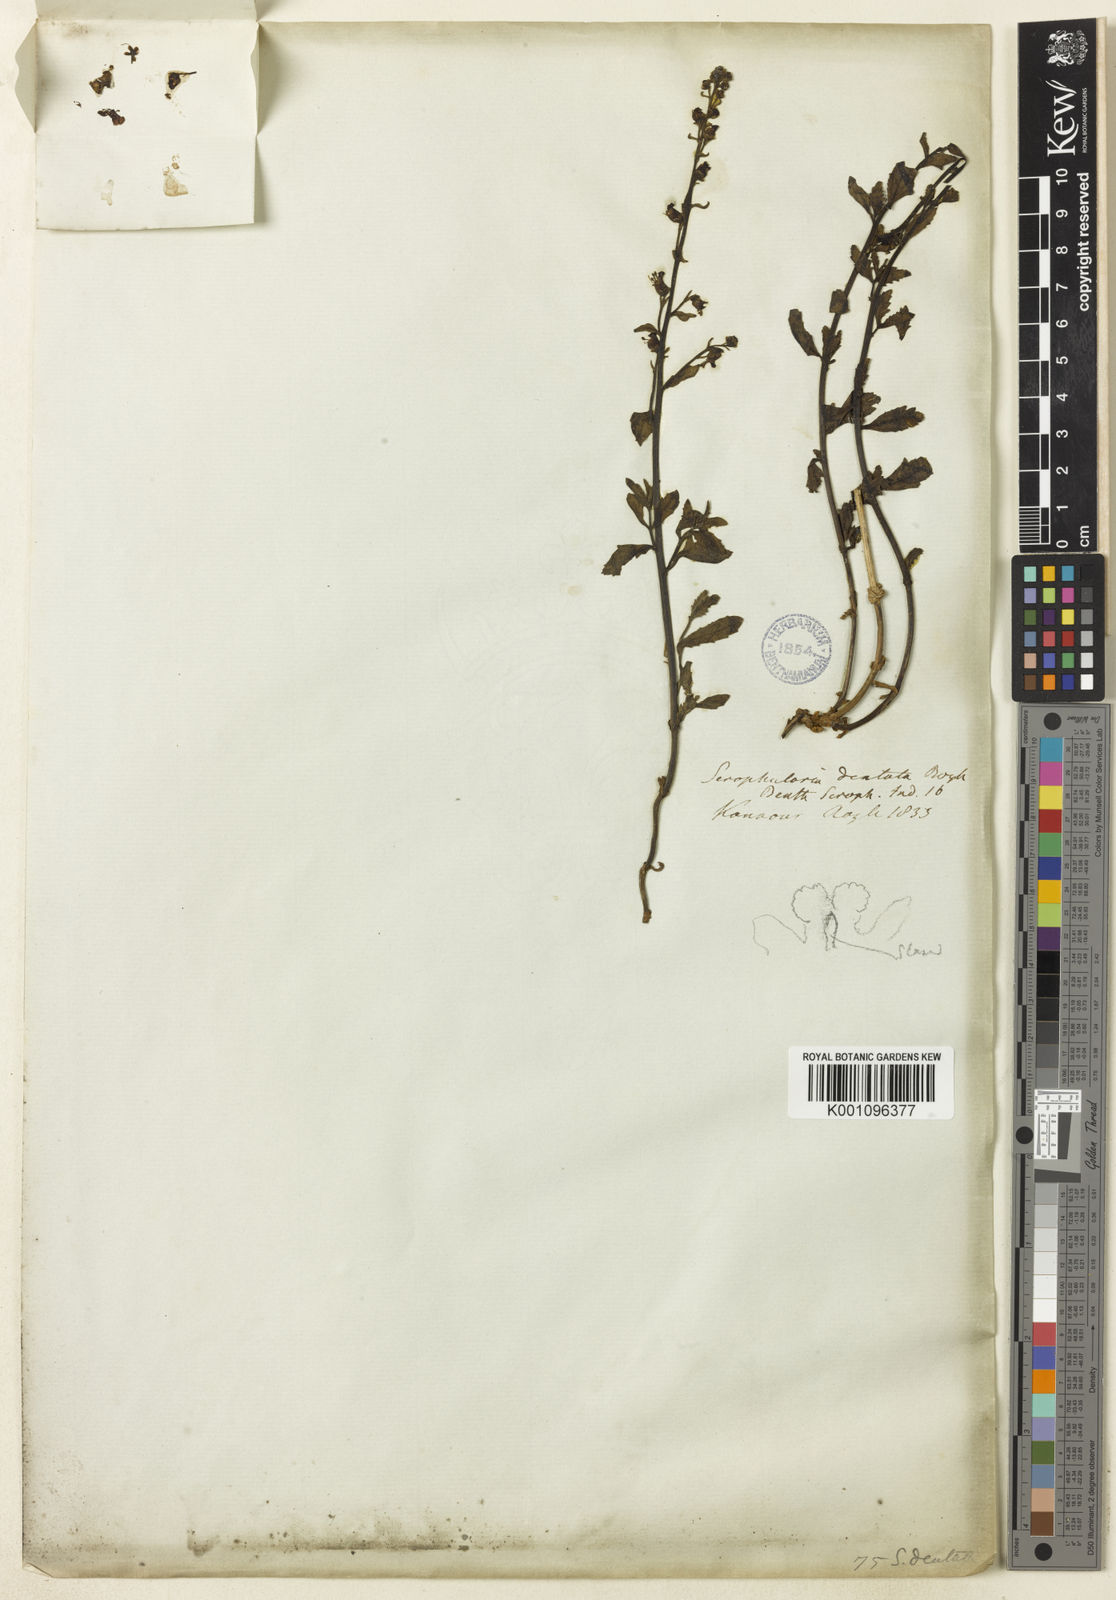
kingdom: Plantae
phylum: Tracheophyta
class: Magnoliopsida
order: Lamiales
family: Scrophulariaceae
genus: Scrophularia
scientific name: Scrophularia dentata
